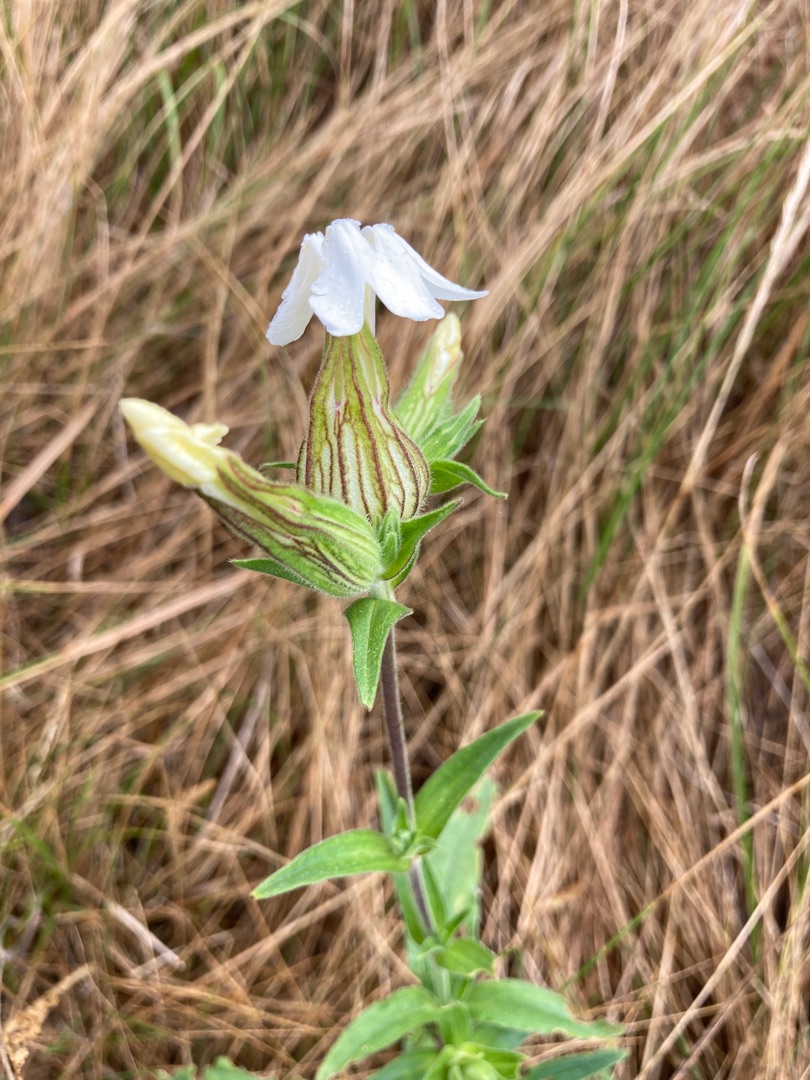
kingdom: Plantae
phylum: Tracheophyta
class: Magnoliopsida
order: Caryophyllales
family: Caryophyllaceae
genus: Silene
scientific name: Silene latifolia
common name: Aftenpragtstjerne
